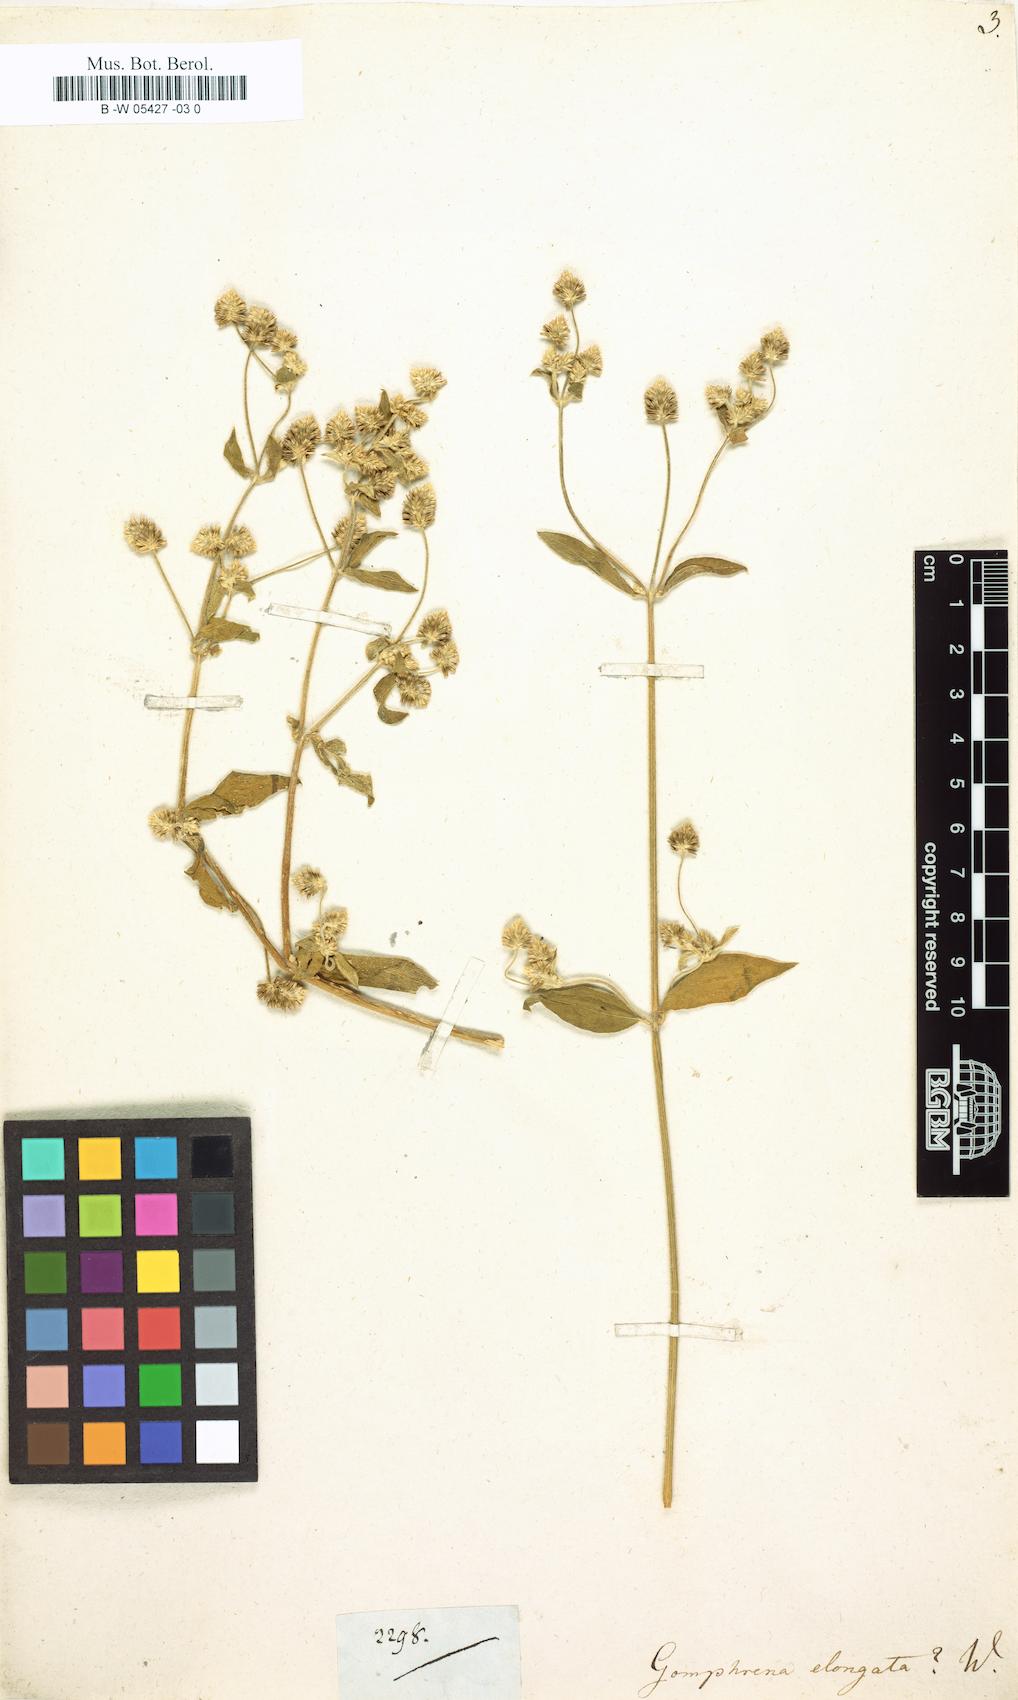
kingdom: Plantae
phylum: Tracheophyta
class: Magnoliopsida
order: Caryophyllales
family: Amaranthaceae
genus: Gomphrena
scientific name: Gomphrena elongata
